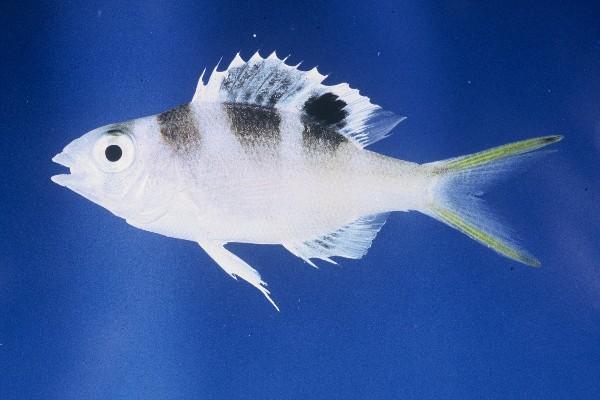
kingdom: Animalia
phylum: Chordata
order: Perciformes
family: Lethrinidae
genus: Monotaxis
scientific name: Monotaxis grandoculis
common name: Bigeye emperor
